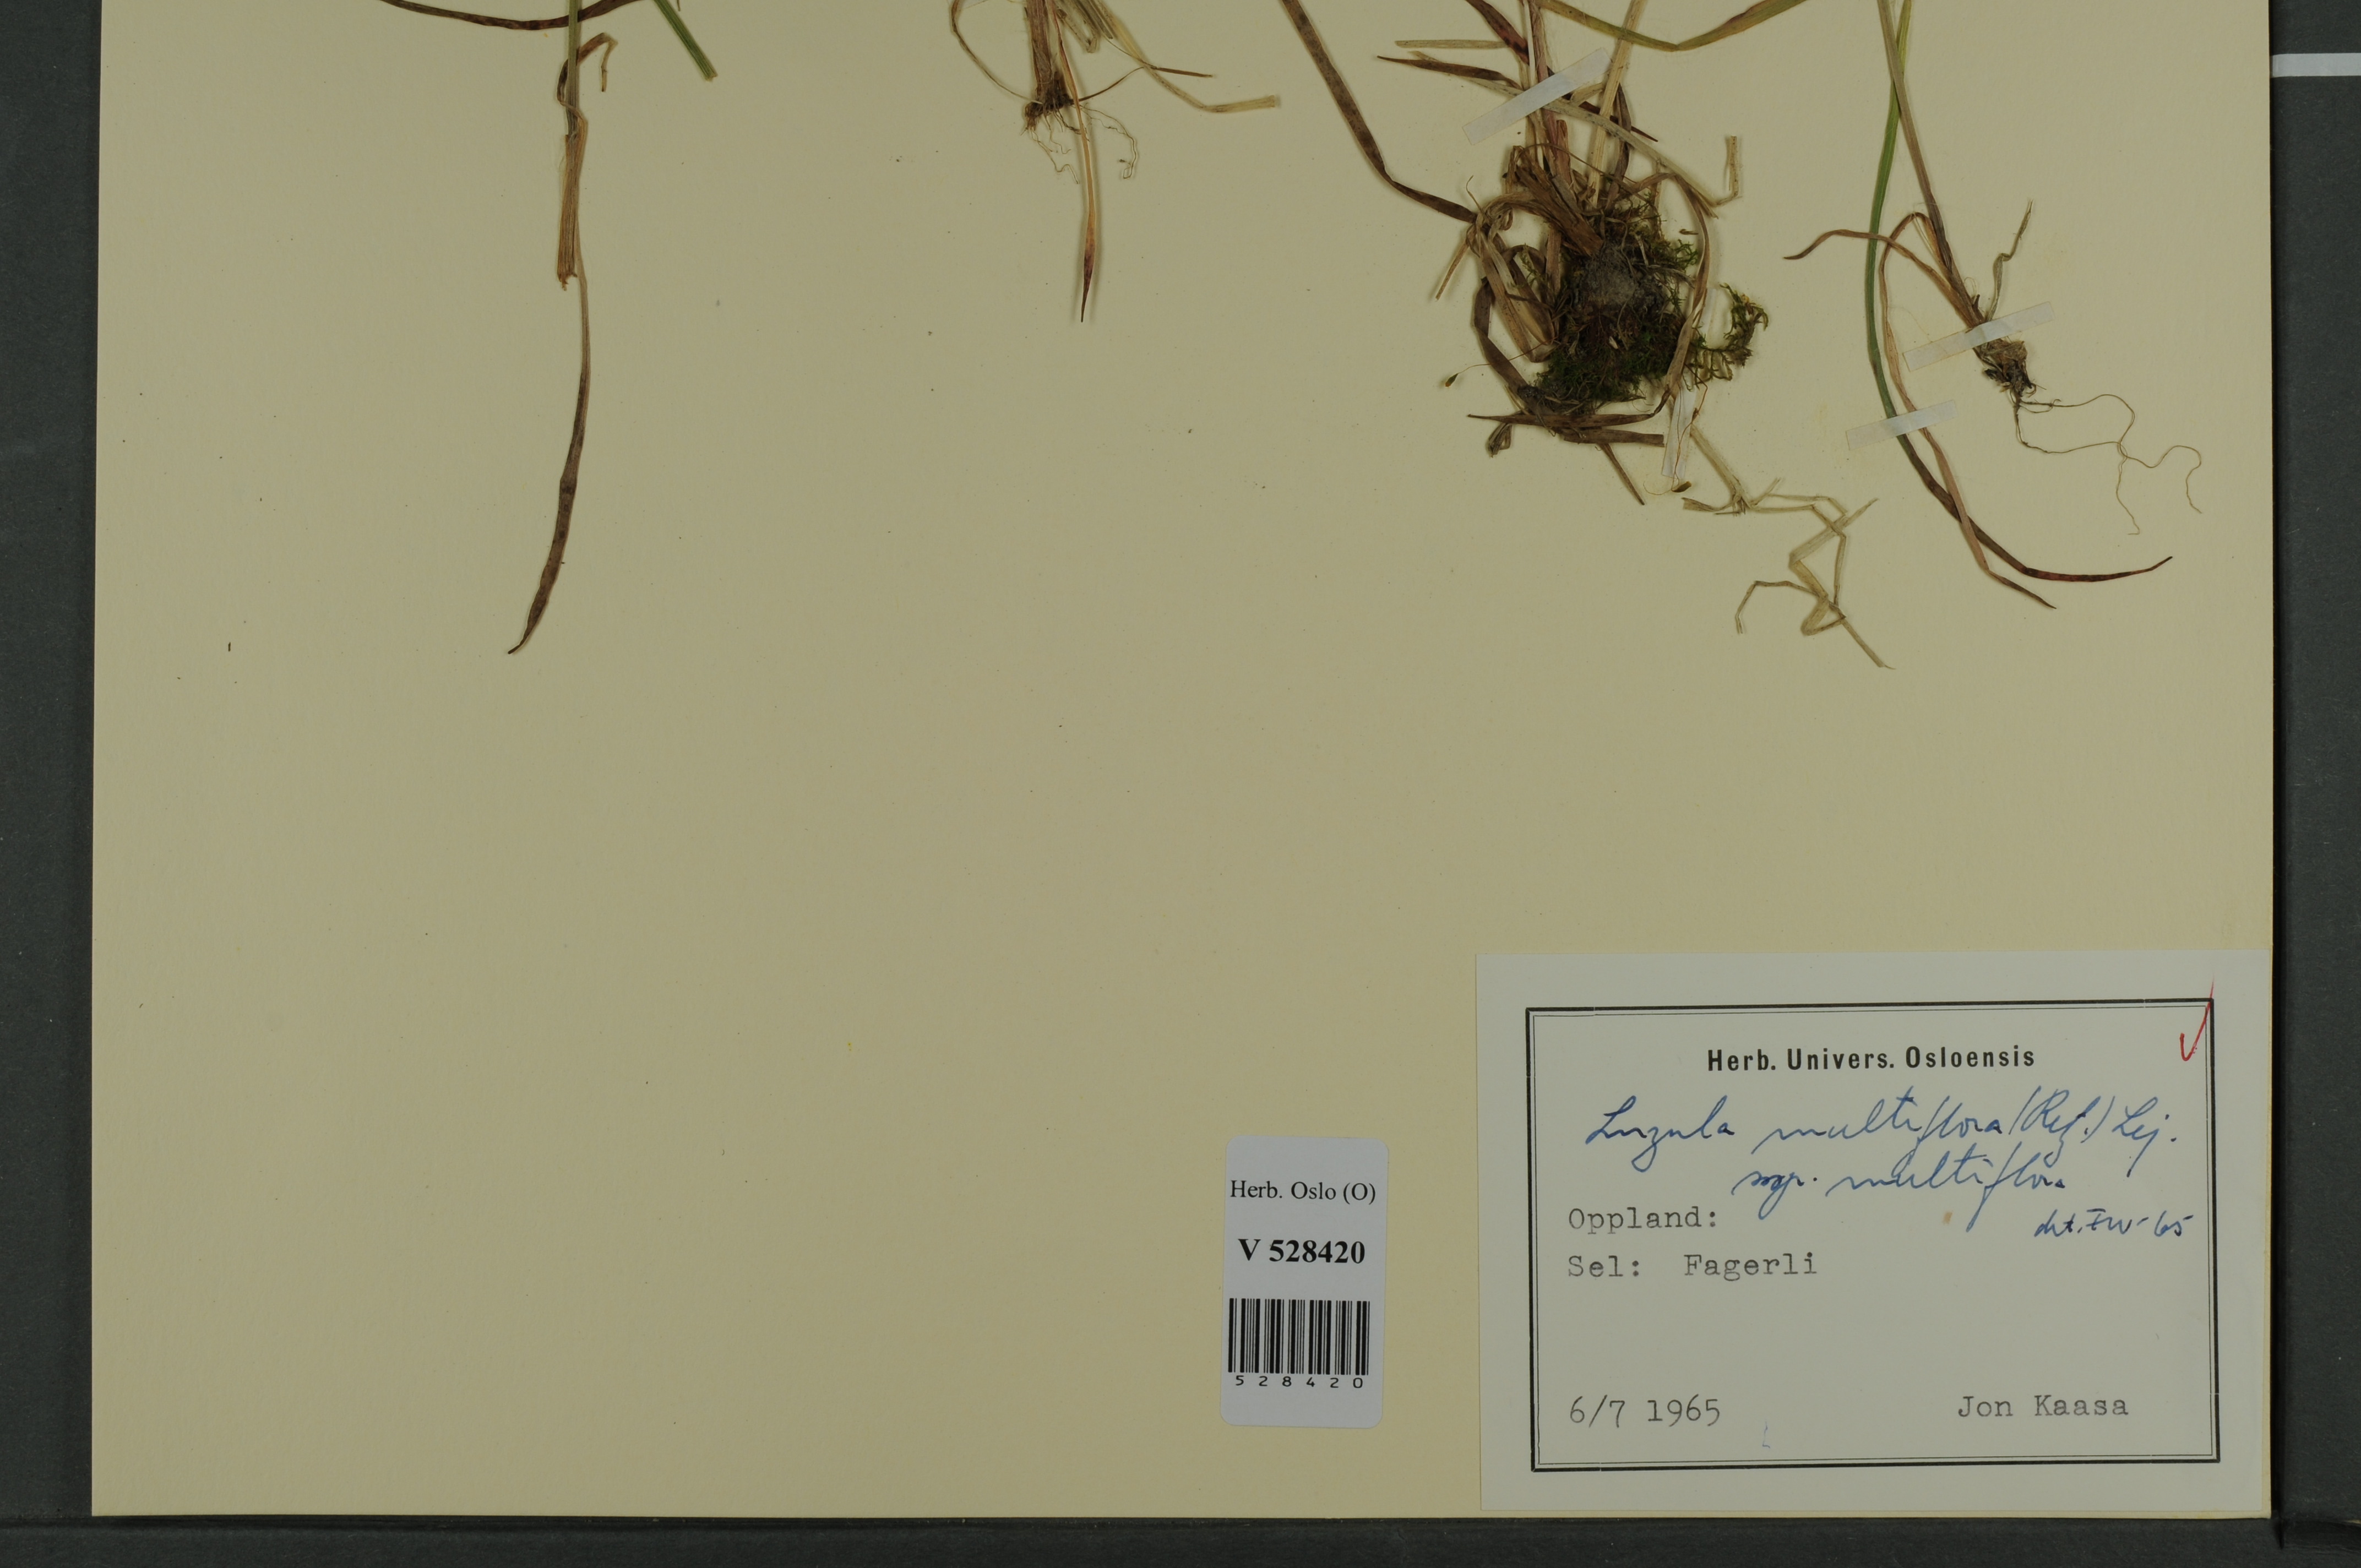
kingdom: Plantae
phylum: Tracheophyta
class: Liliopsida
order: Poales
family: Juncaceae
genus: Luzula
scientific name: Luzula multiflora
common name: Heath wood-rush
